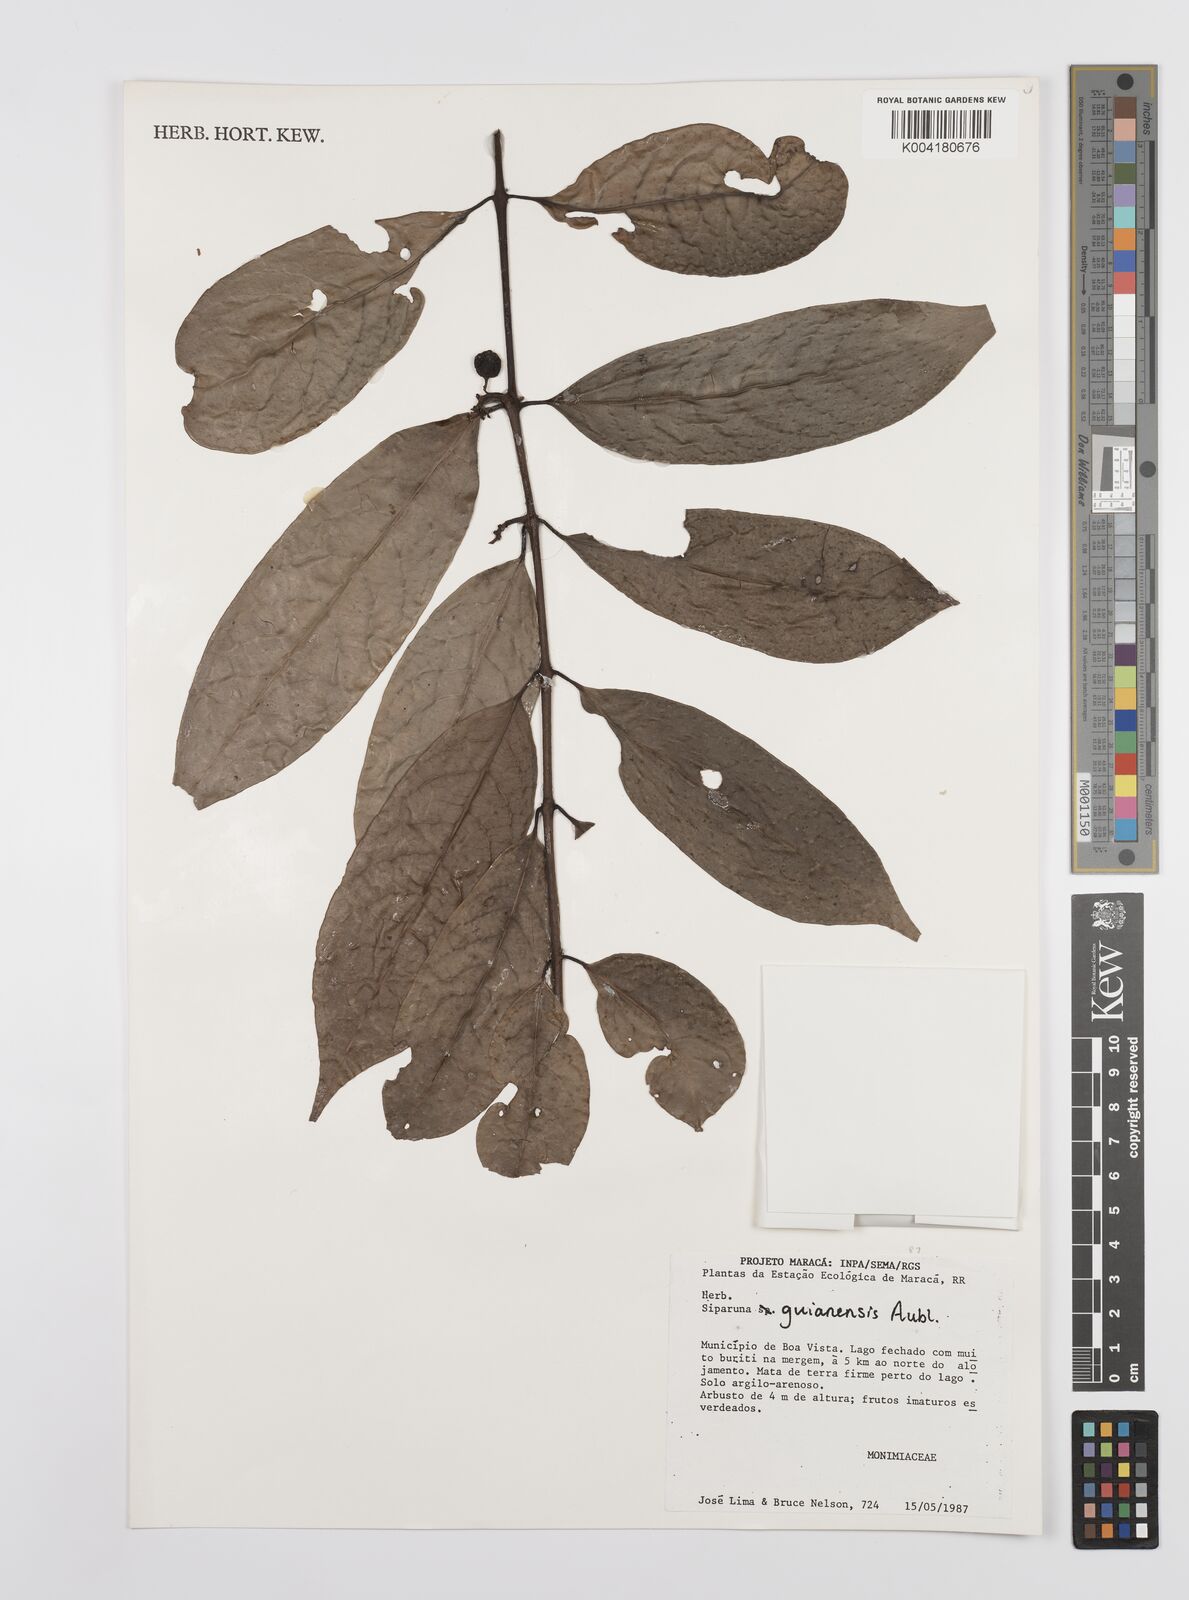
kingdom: Plantae
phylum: Tracheophyta
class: Magnoliopsida
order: Laurales
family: Siparunaceae
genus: Siparuna
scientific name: Siparuna guianensis
